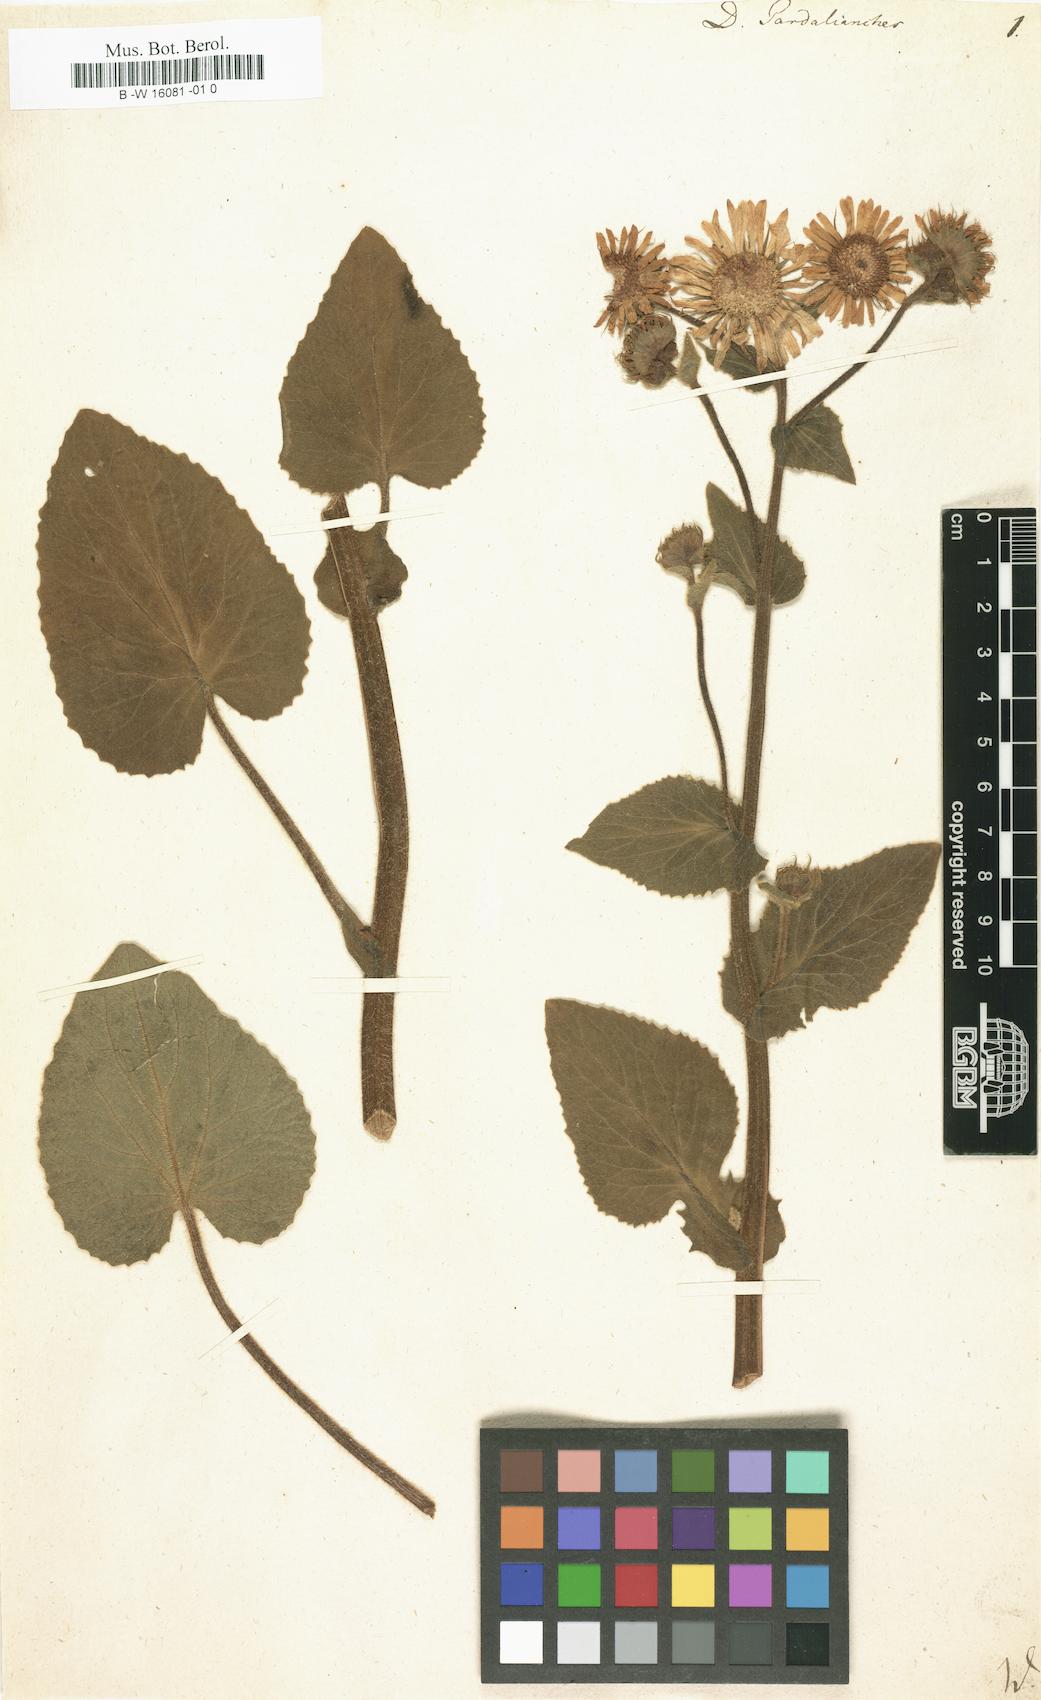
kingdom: Plantae
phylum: Tracheophyta
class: Magnoliopsida
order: Asterales
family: Asteraceae
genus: Doronicum
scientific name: Doronicum pardalianches
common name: Leopard's-bane
